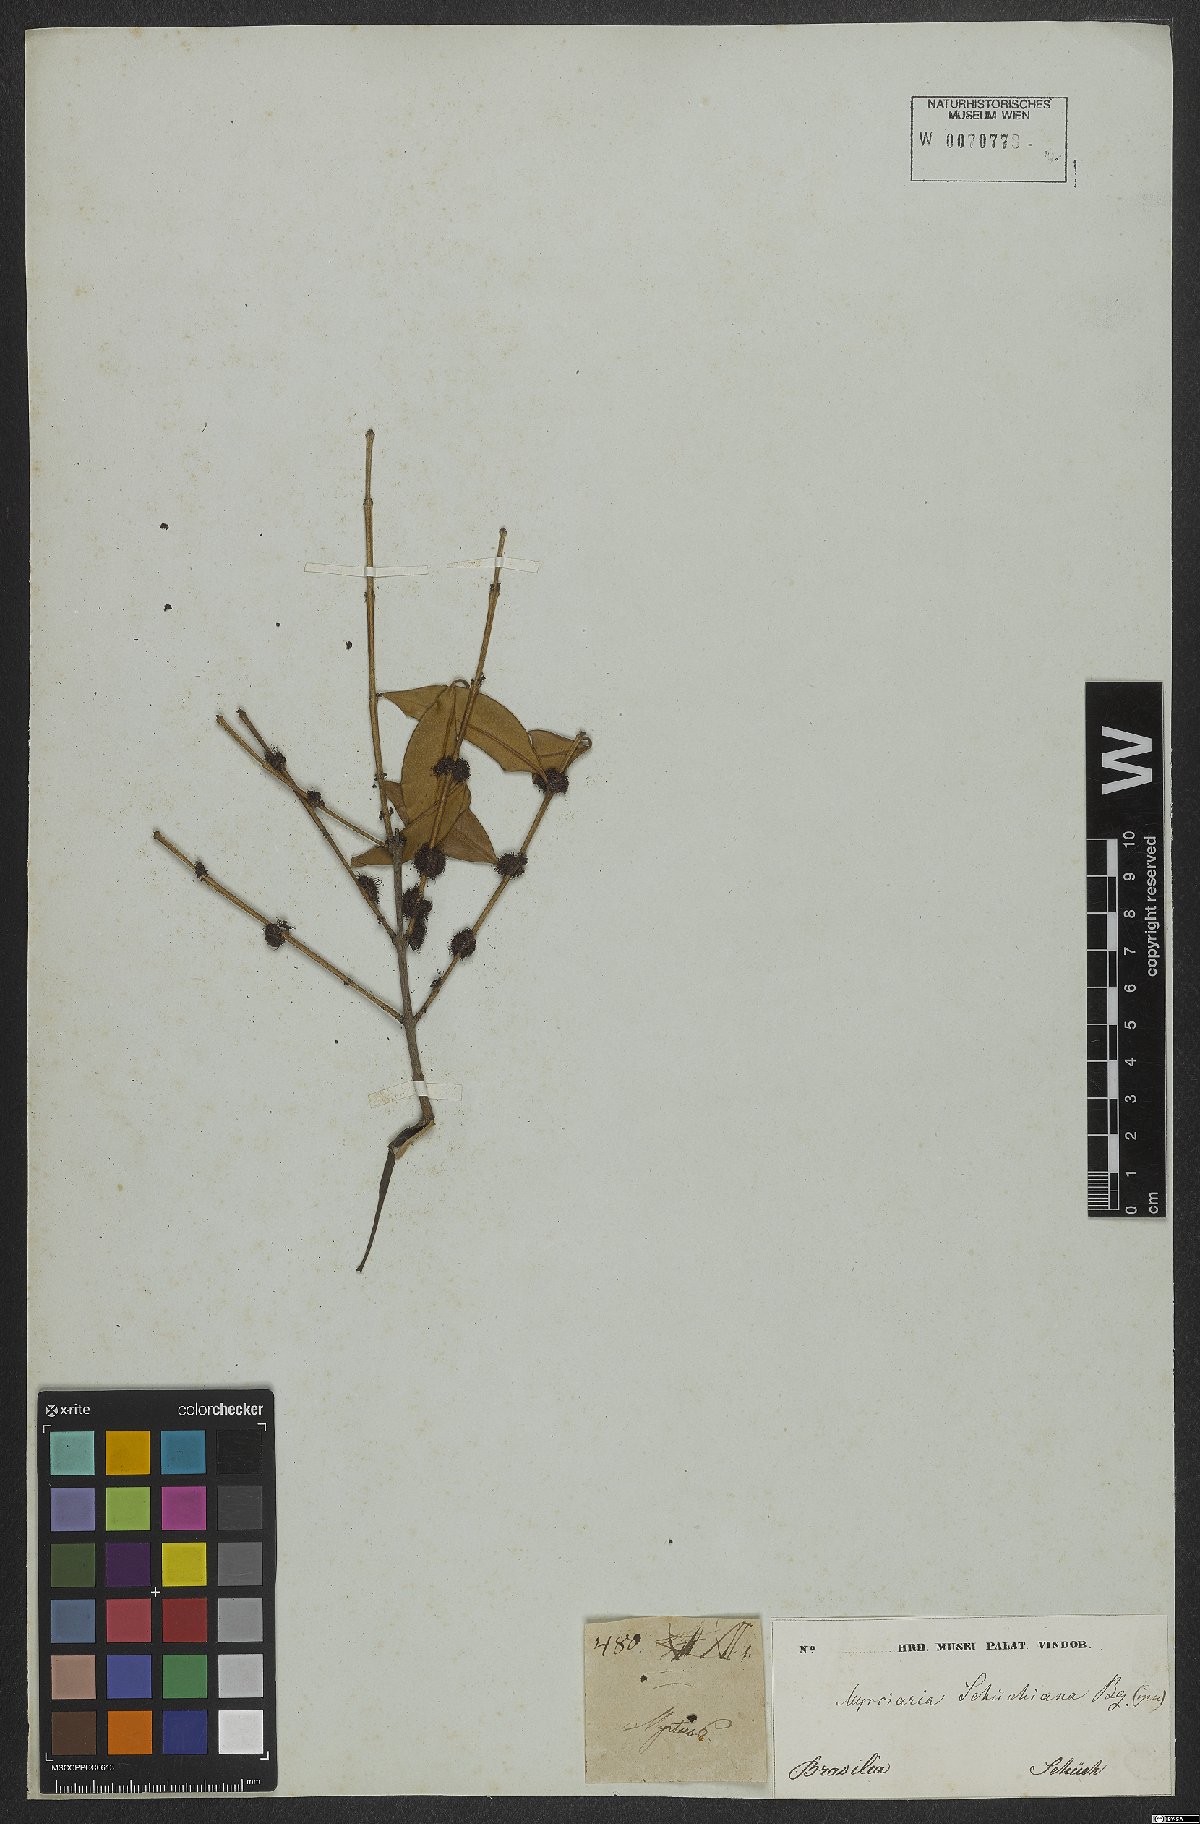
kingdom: Plantae
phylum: Tracheophyta
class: Magnoliopsida
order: Myrtales
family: Myrtaceae
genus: Myrciaria
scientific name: Myrciaria floribunda
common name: Guavaberry
